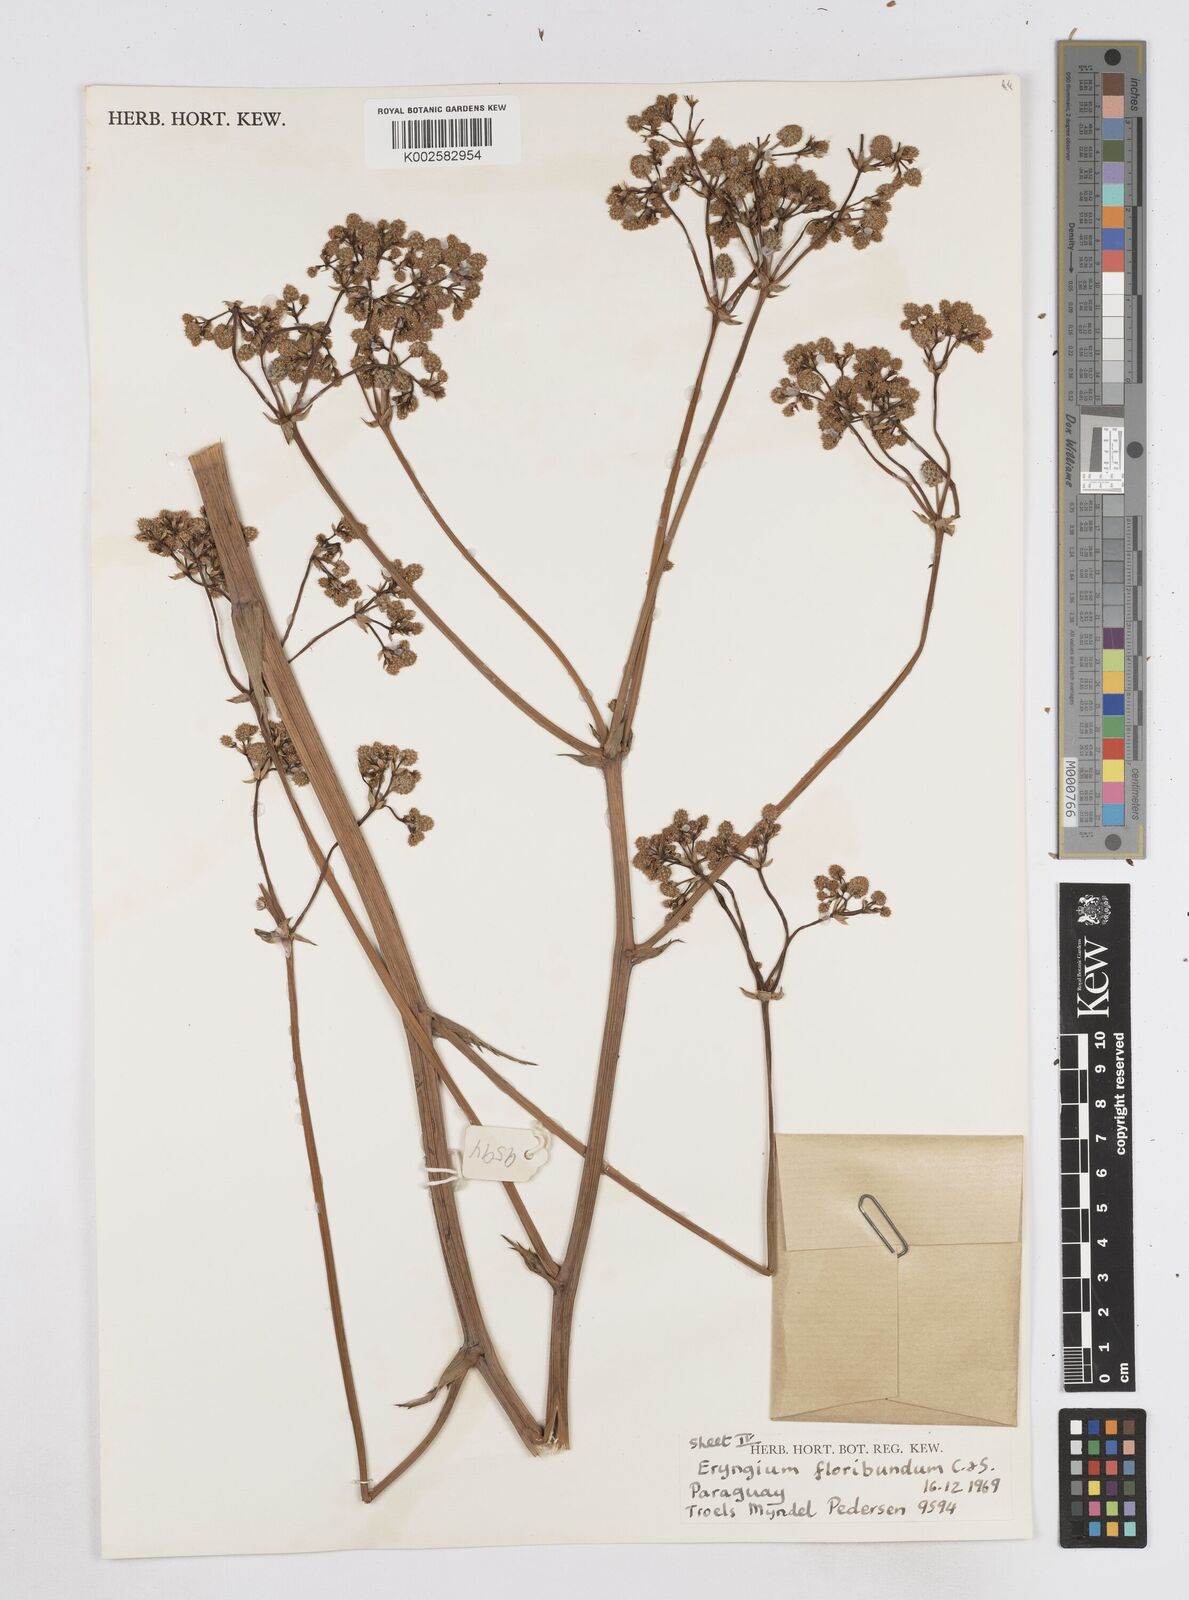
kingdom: Plantae
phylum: Tracheophyta
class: Magnoliopsida
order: Apiales
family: Apiaceae
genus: Eryngium
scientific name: Eryngium floribundum
